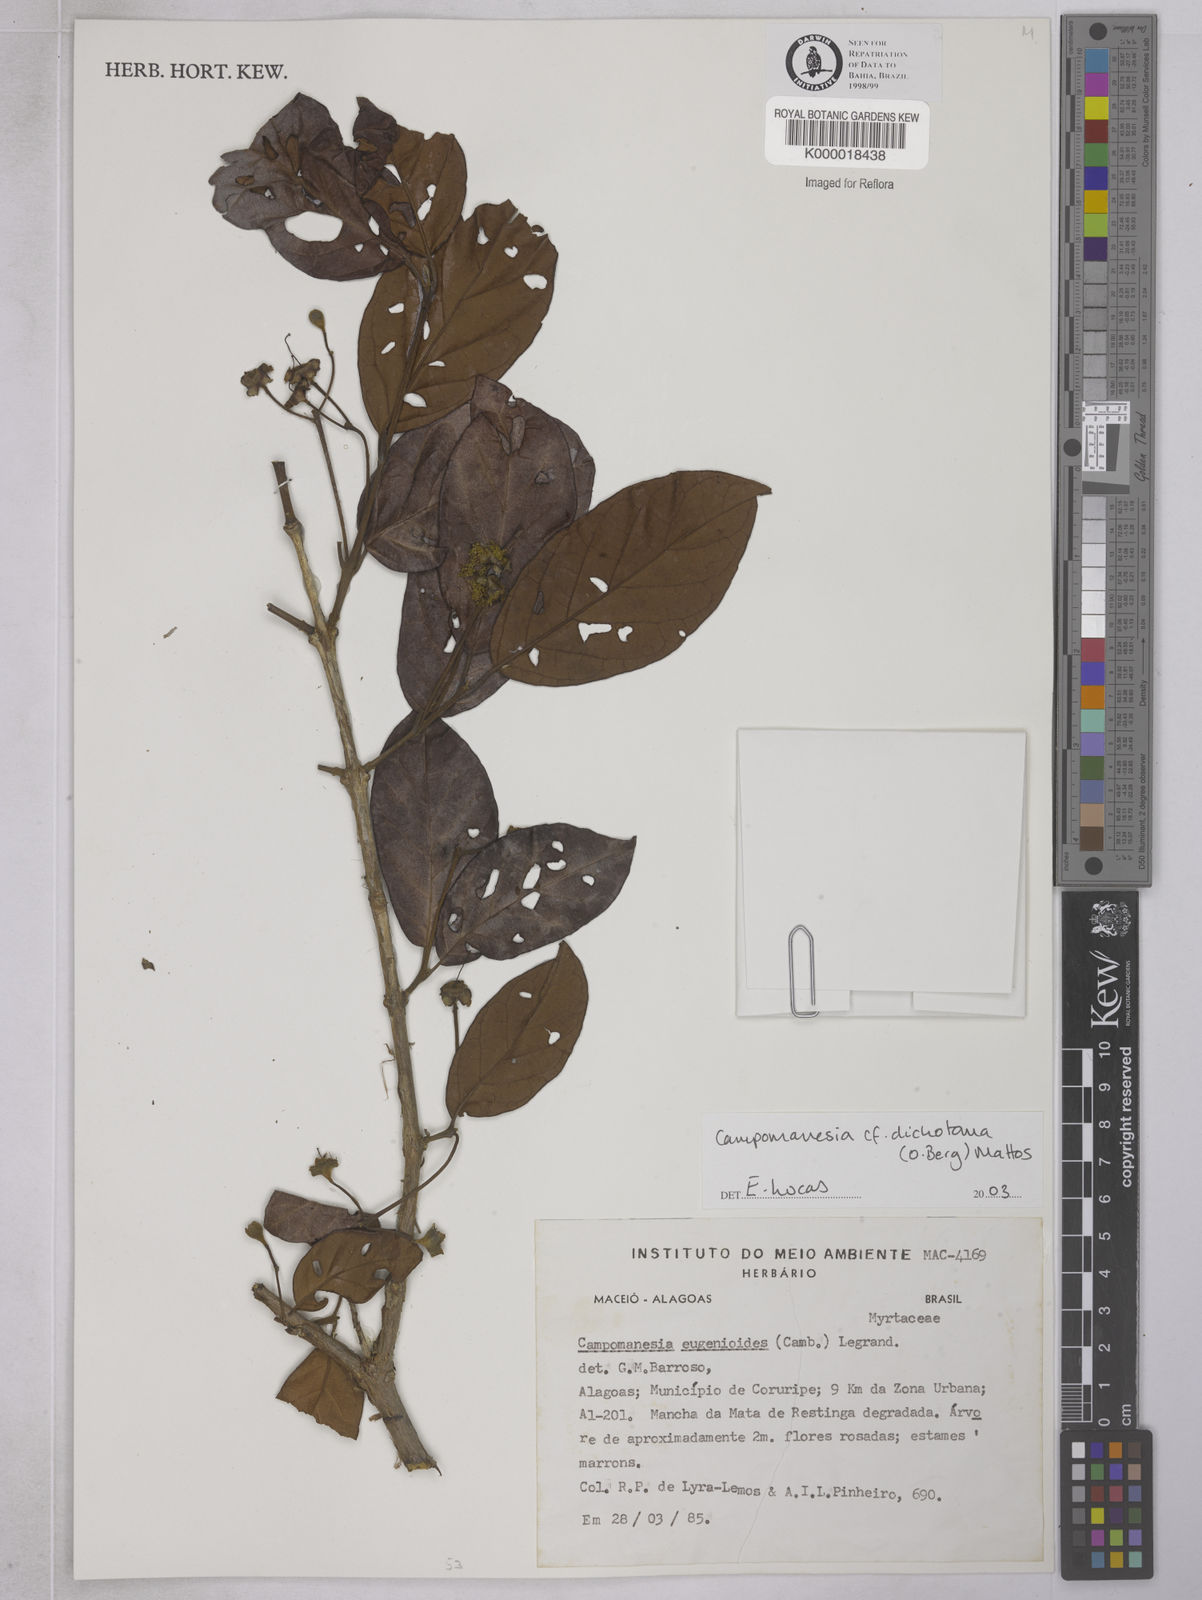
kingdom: Plantae
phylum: Tracheophyta
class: Magnoliopsida
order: Myrtales
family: Myrtaceae
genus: Campomanesia
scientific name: Campomanesia
